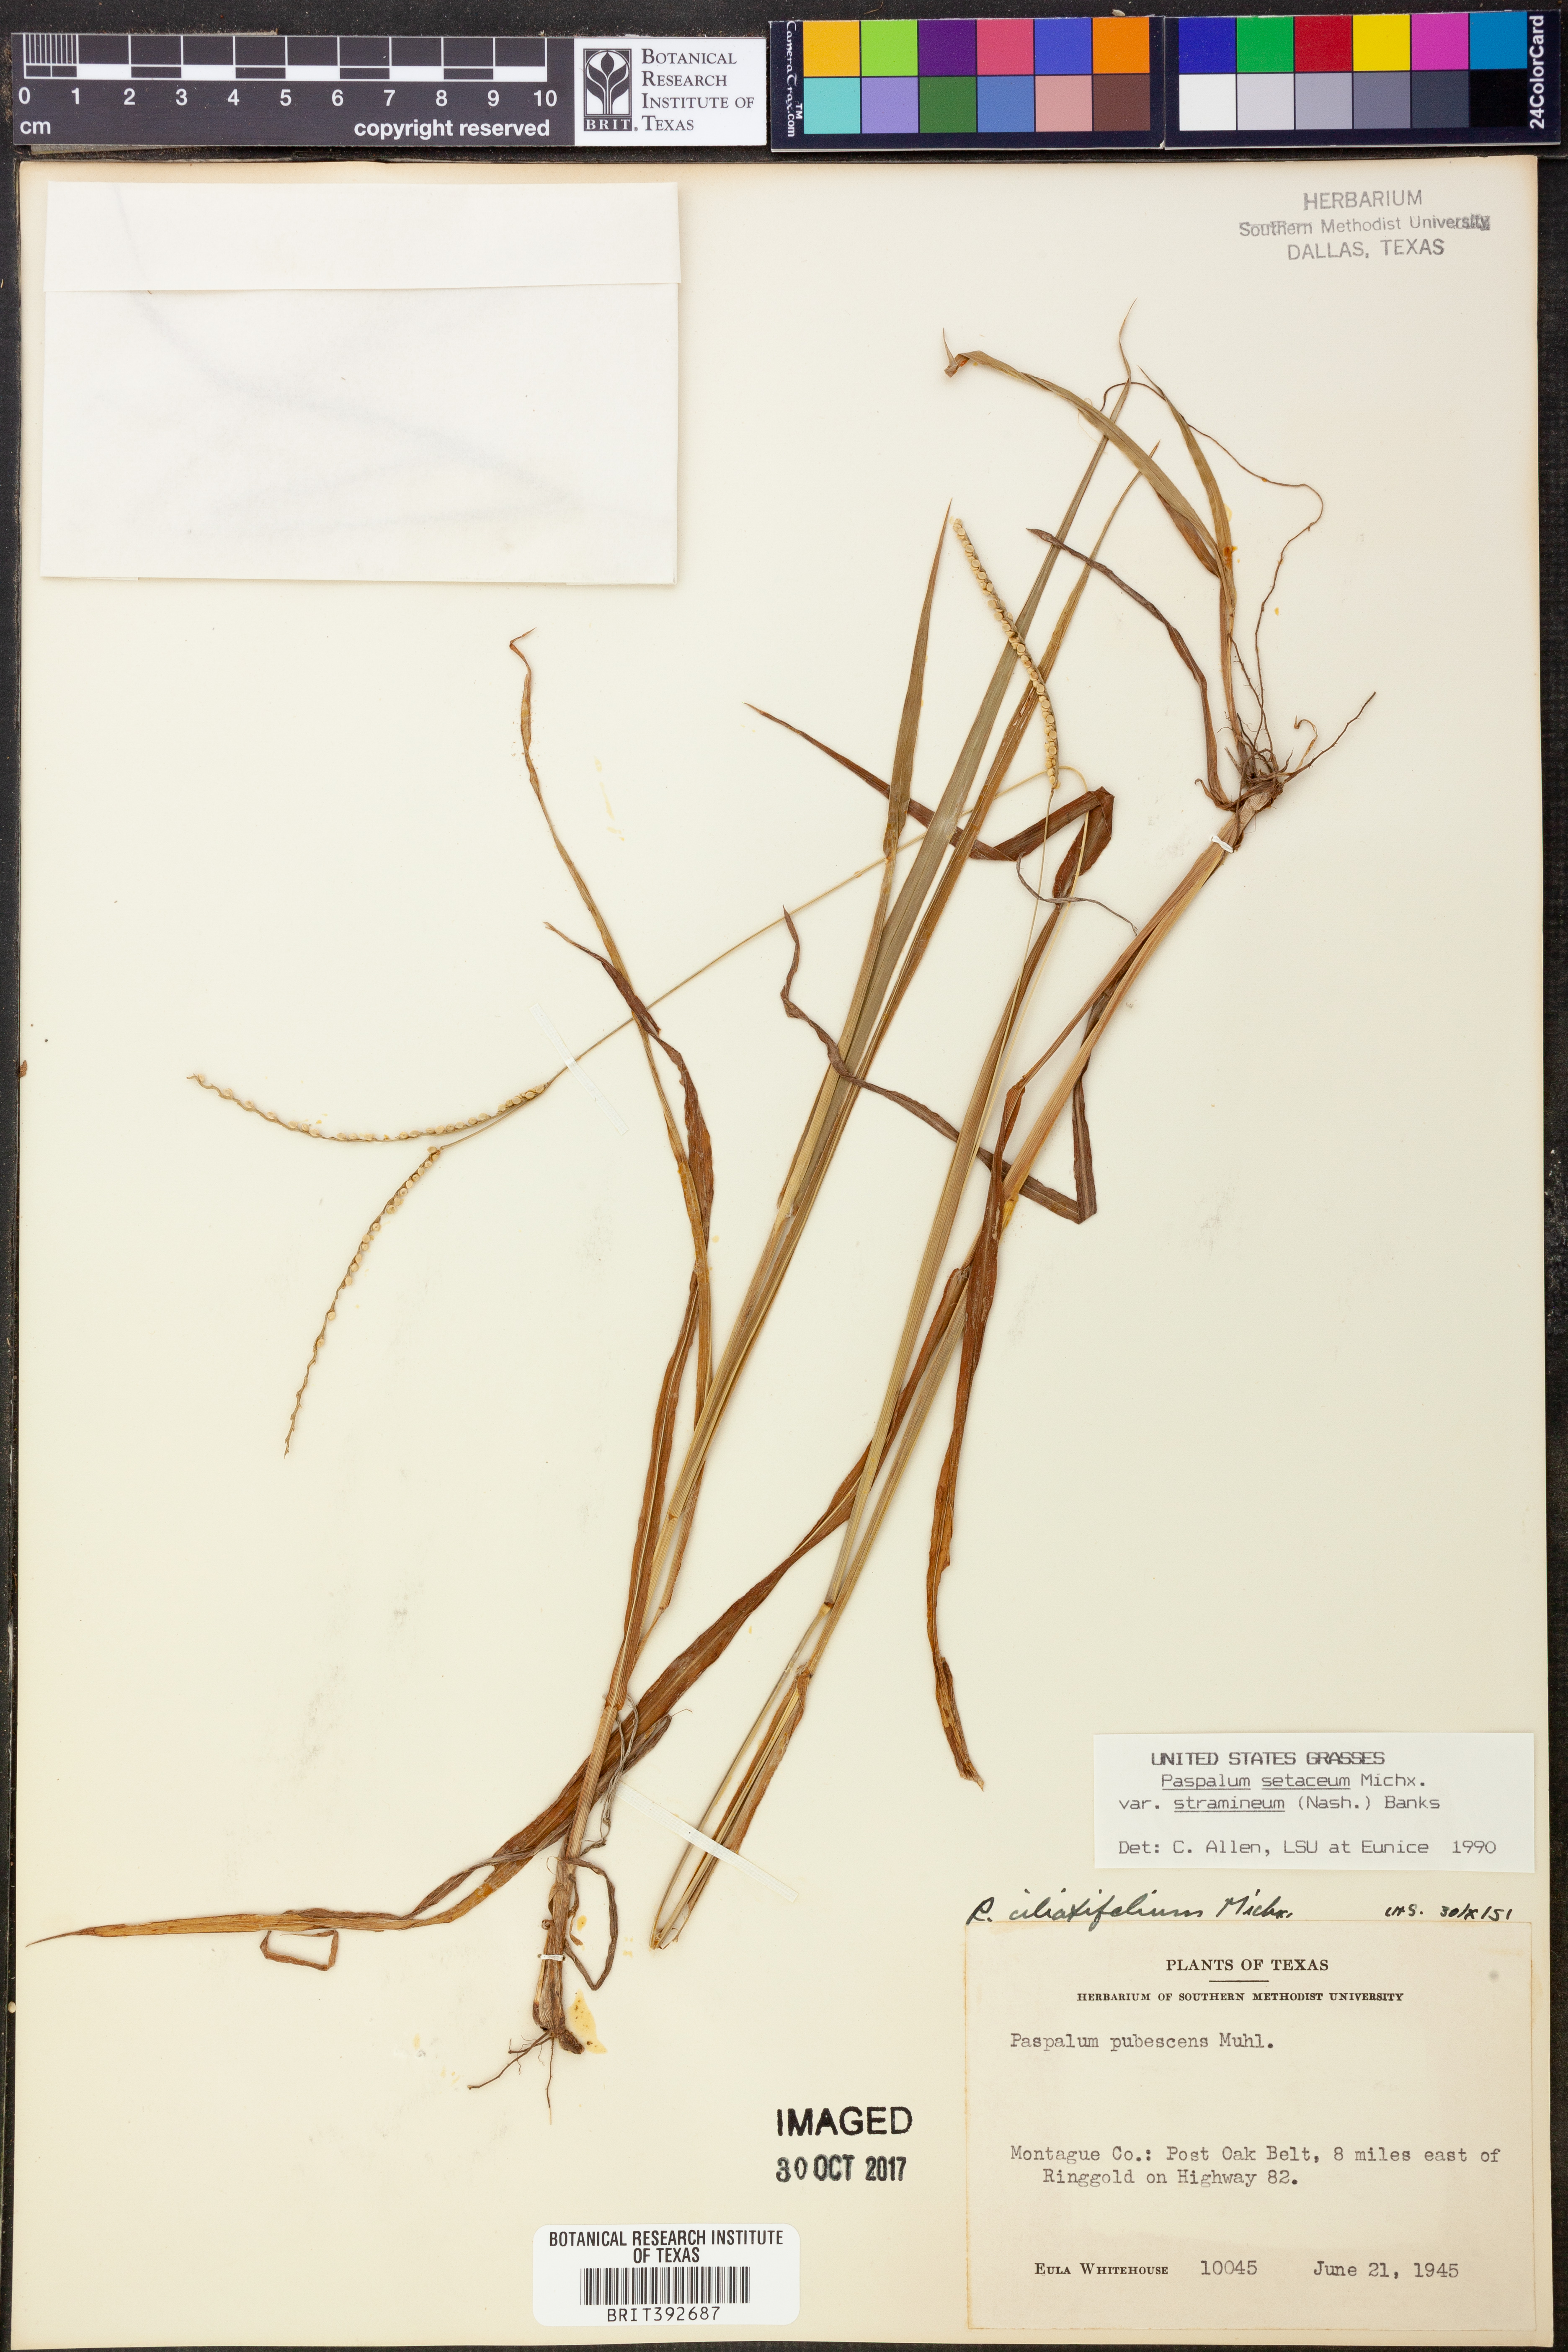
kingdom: Plantae
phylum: Tracheophyta
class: Liliopsida
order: Poales
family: Poaceae
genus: Paspalum
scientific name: Paspalum setaceum
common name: Slender paspalum
